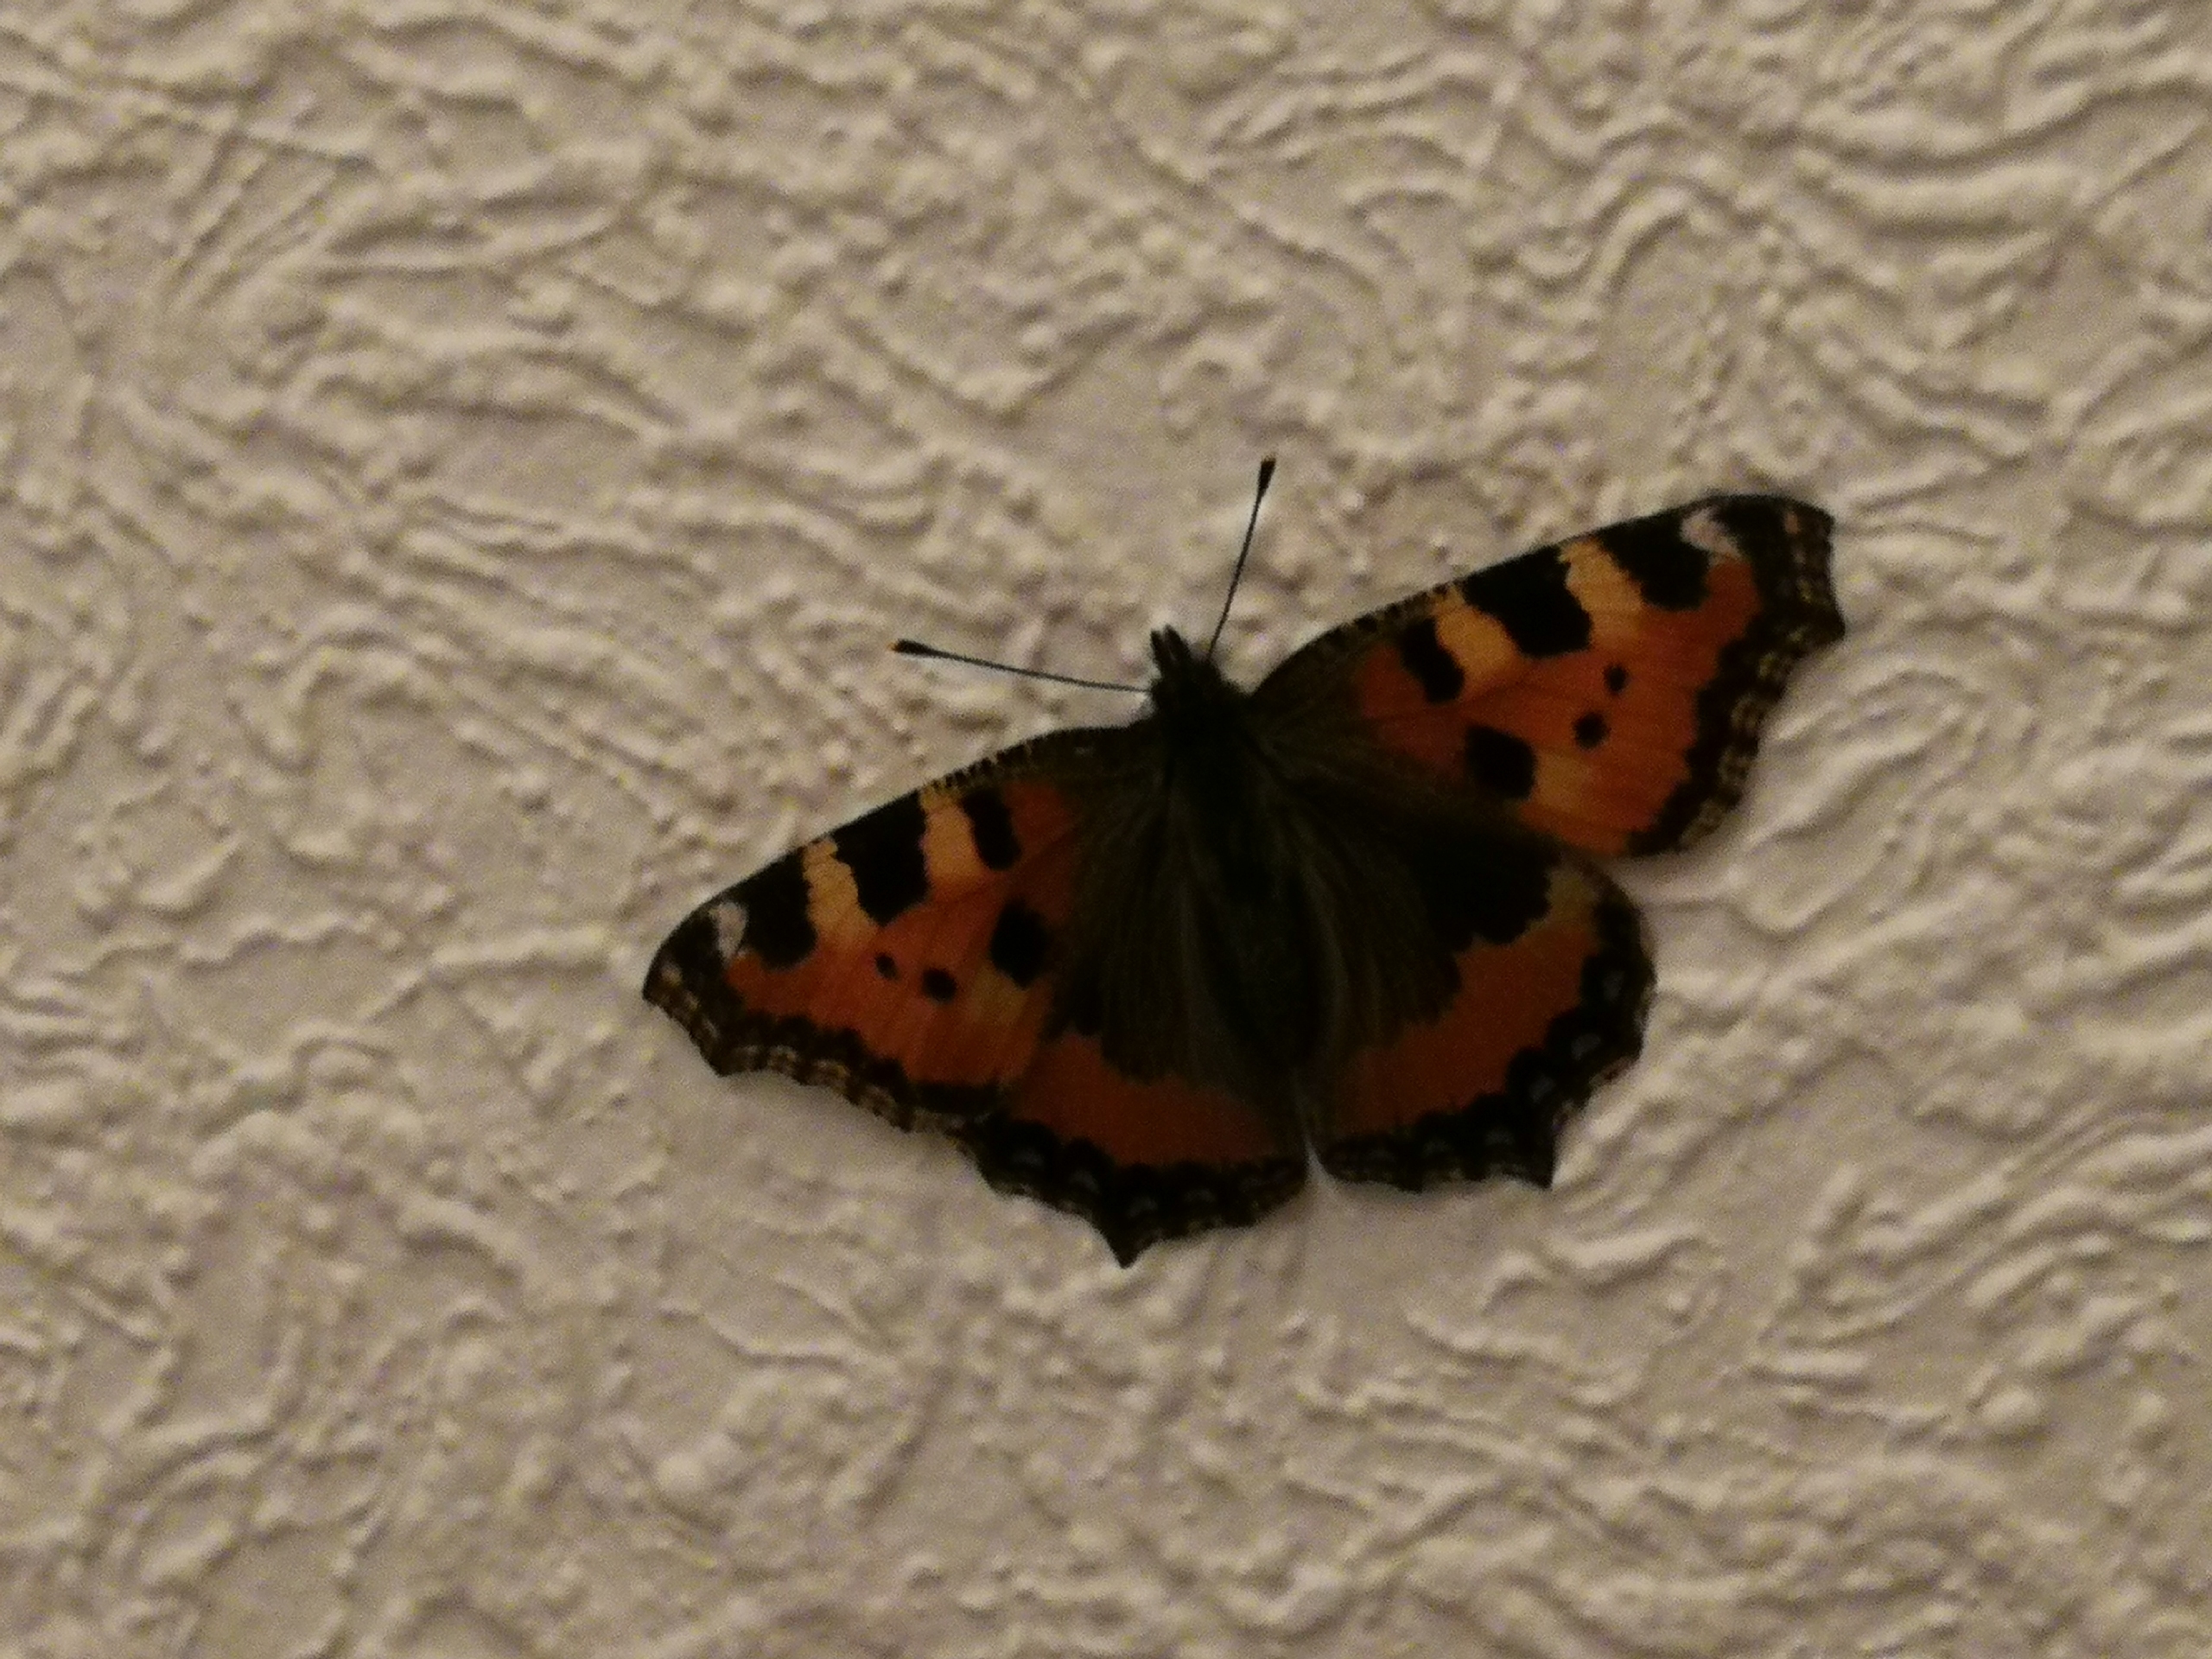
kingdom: Animalia
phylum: Arthropoda
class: Insecta
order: Lepidoptera
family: Nymphalidae
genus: Aglais
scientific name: Aglais urticae
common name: Nældens takvinge
